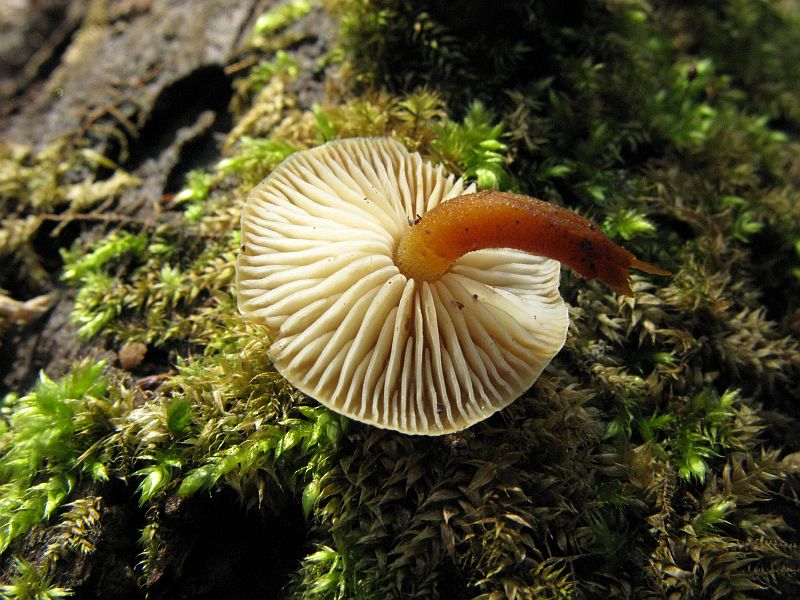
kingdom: Fungi
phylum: Basidiomycota
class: Agaricomycetes
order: Agaricales
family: Physalacriaceae
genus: Flammulina
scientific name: Flammulina velutipes
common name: gul fløjlsfod
